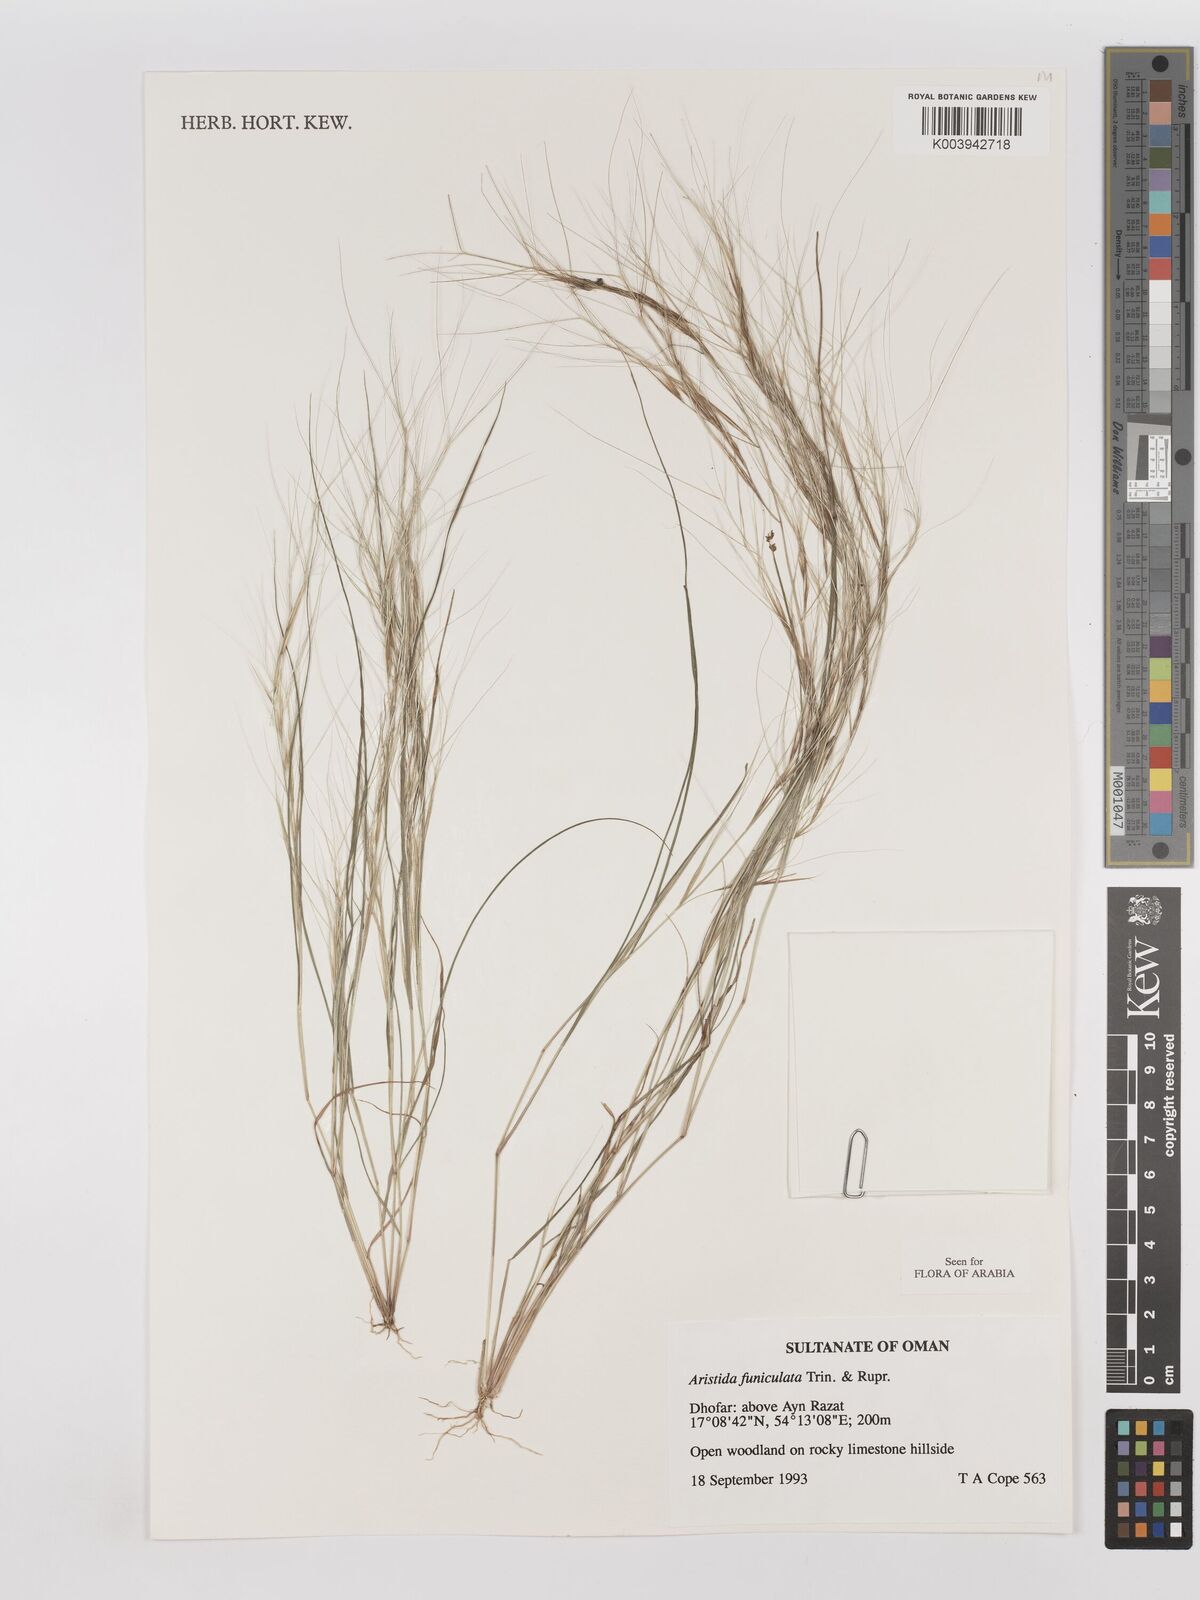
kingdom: Plantae
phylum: Tracheophyta
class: Liliopsida
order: Poales
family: Poaceae
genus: Aristida
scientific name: Aristida funiculata
